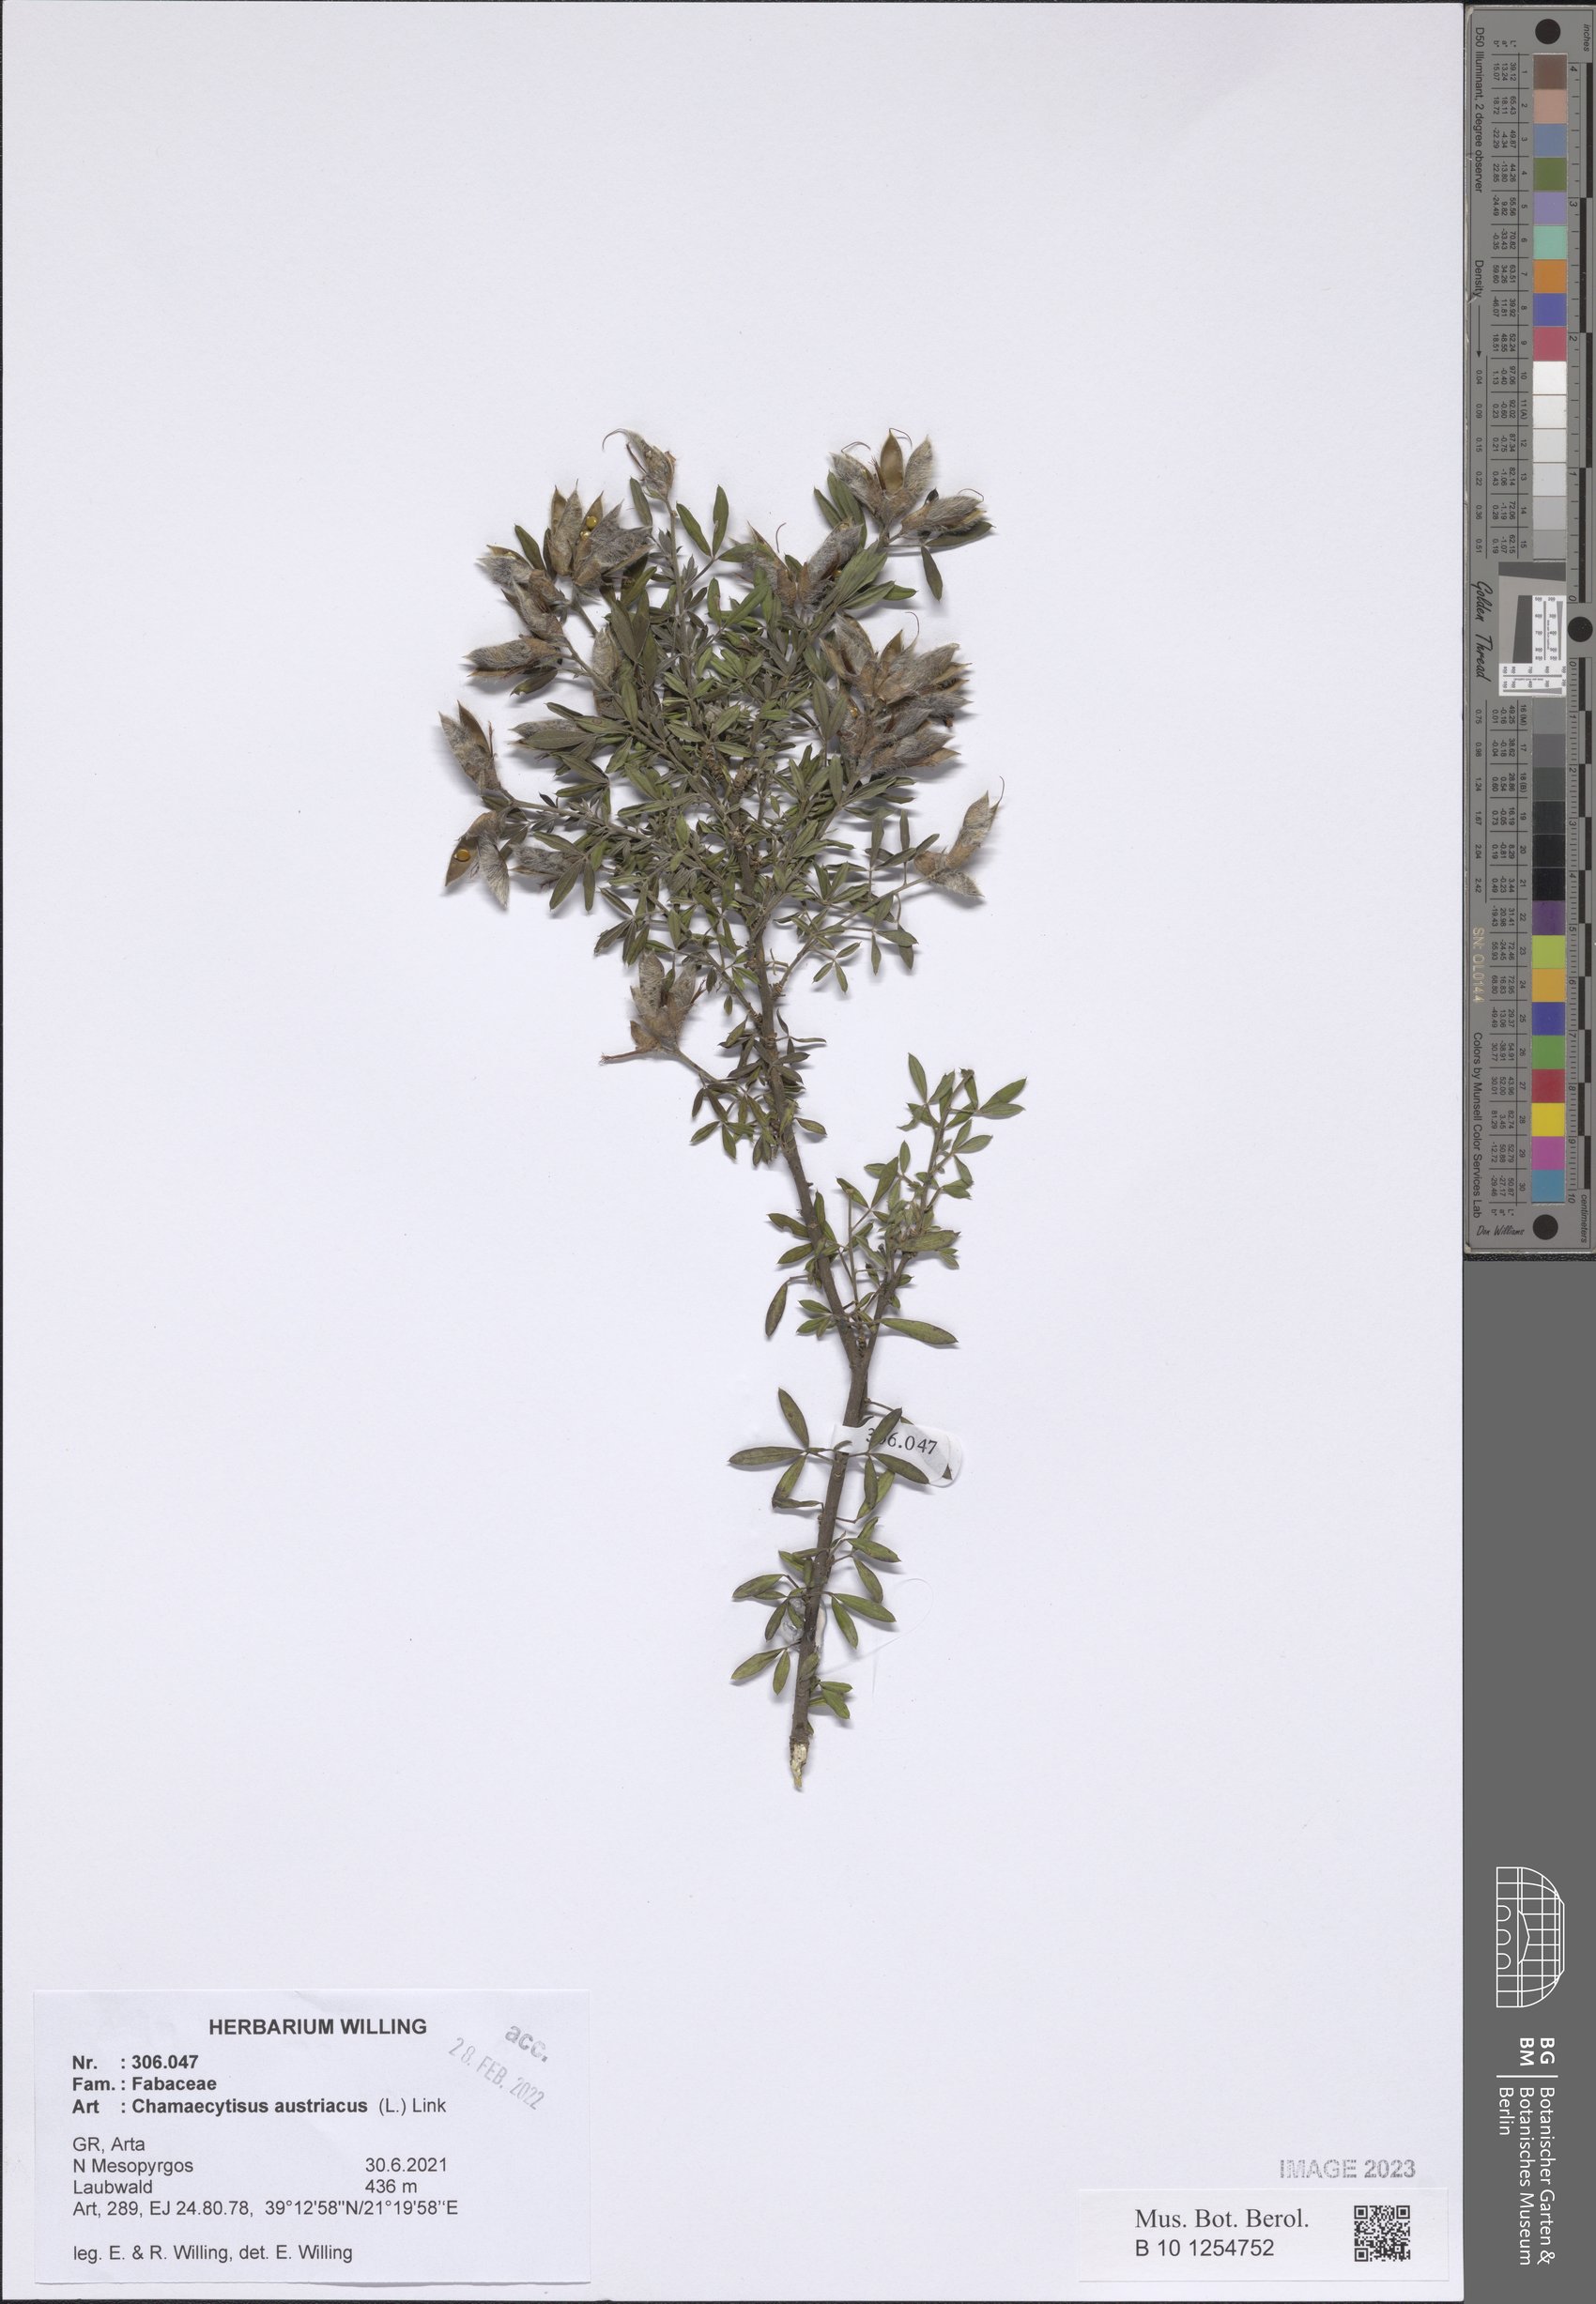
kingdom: Plantae
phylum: Tracheophyta
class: Magnoliopsida
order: Fabales
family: Fabaceae
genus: Chamaecytisus
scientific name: Chamaecytisus austriacus
